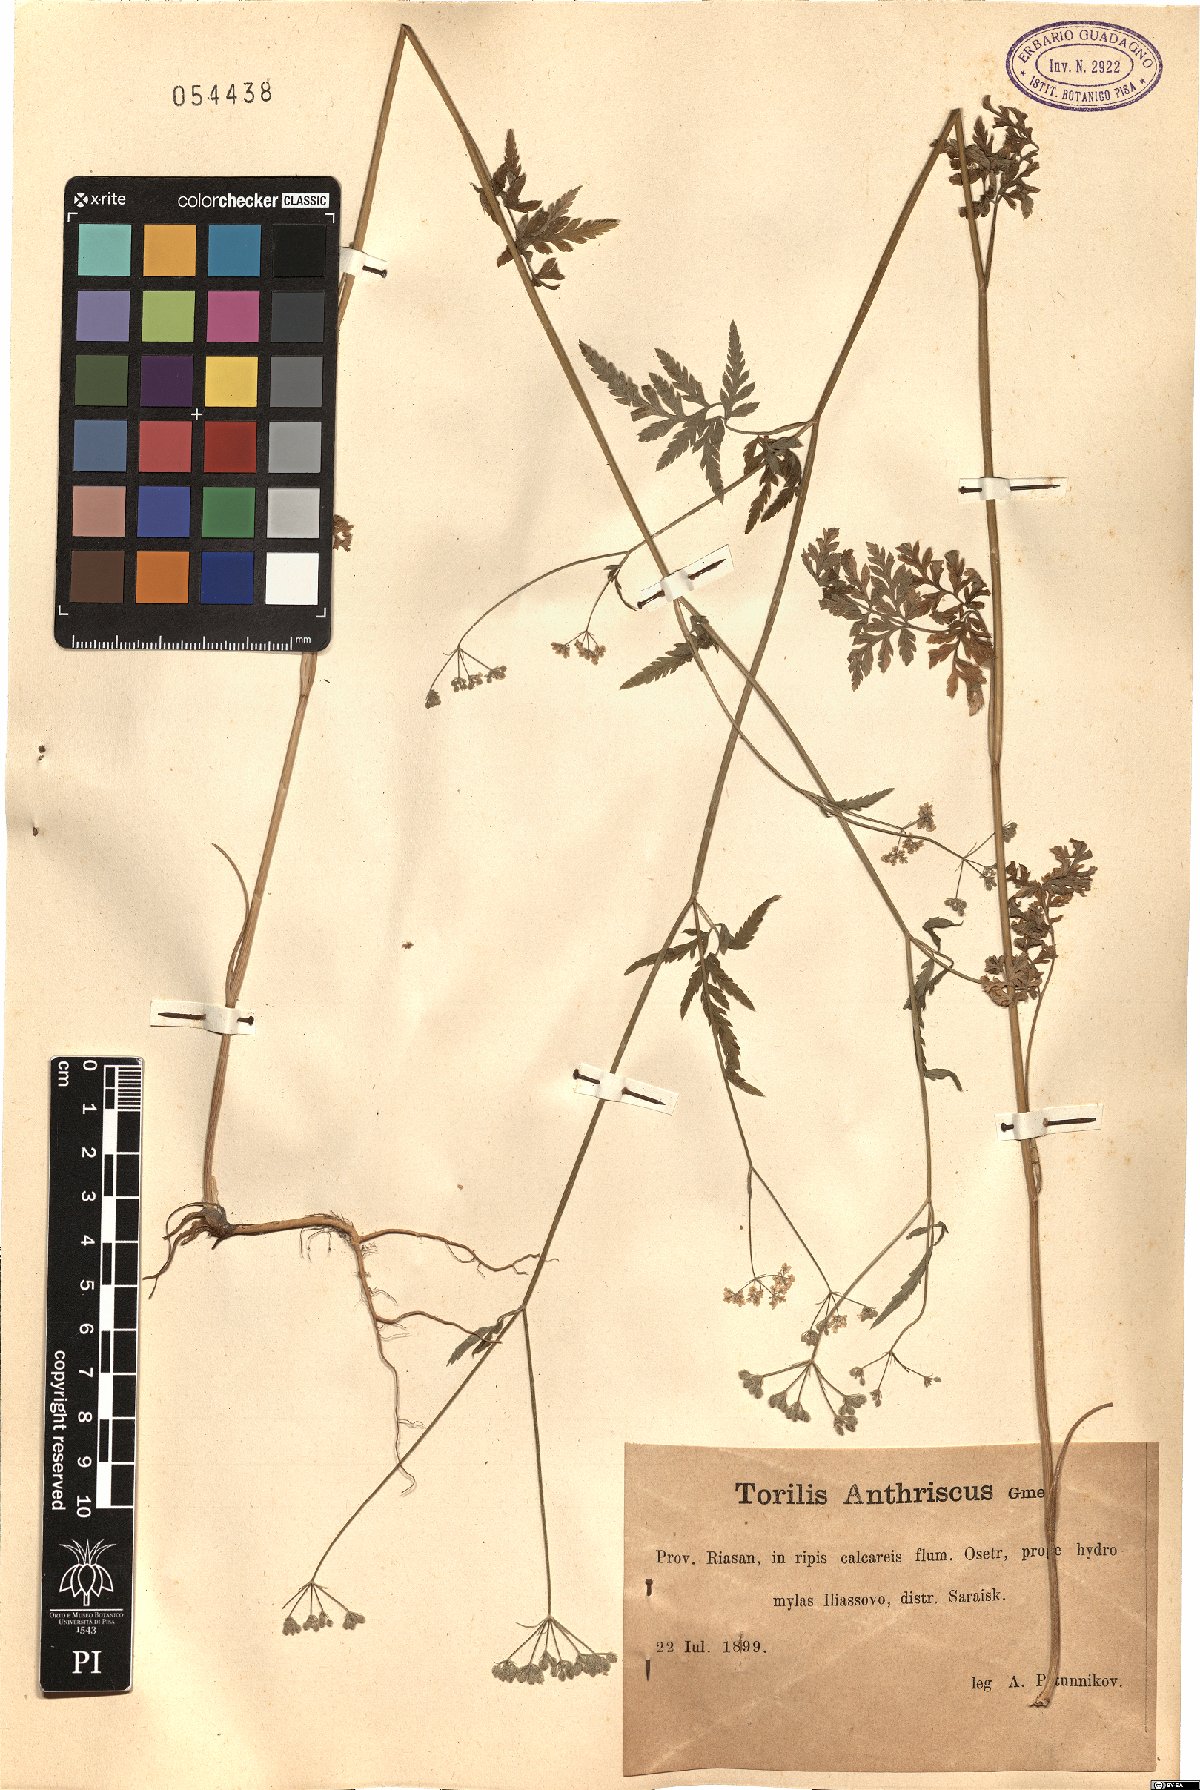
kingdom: Plantae
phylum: Tracheophyta
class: Magnoliopsida
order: Apiales
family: Apiaceae
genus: Torilis
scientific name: Torilis japonica
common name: Upright hedge-parsley
